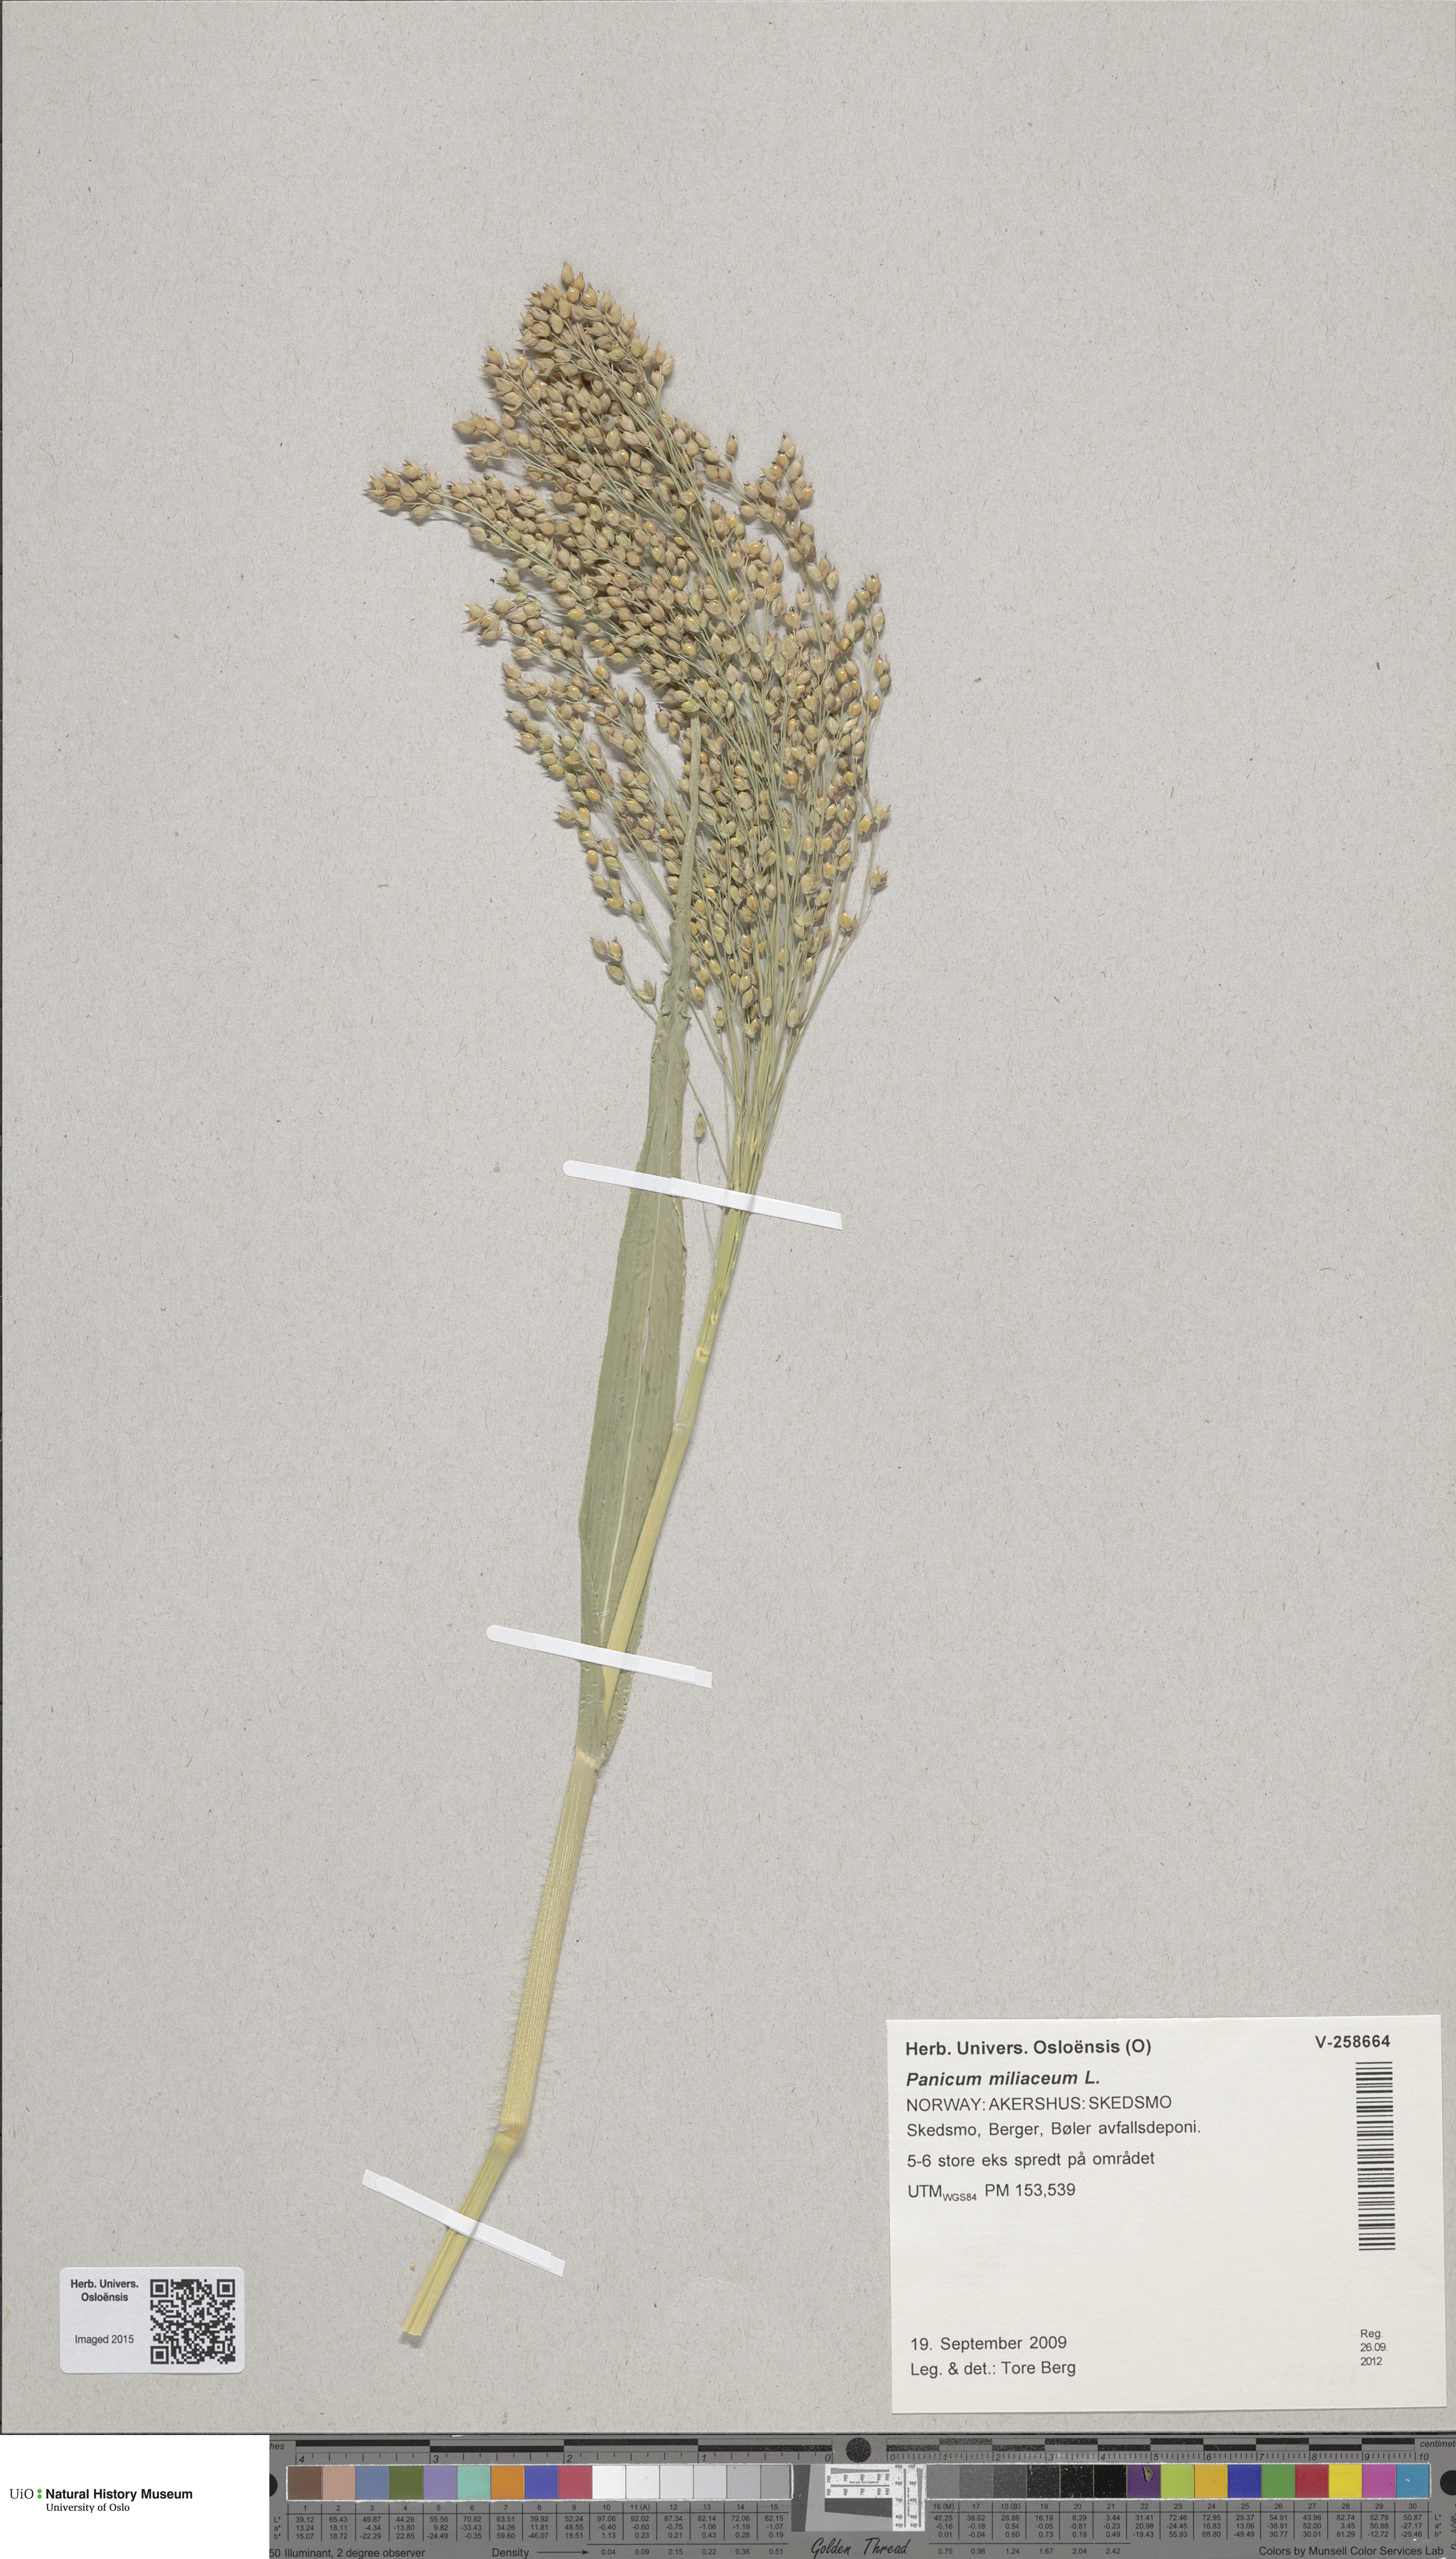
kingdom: Plantae
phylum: Tracheophyta
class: Liliopsida
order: Poales
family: Poaceae
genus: Panicum
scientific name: Panicum miliaceum
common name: Common millet
